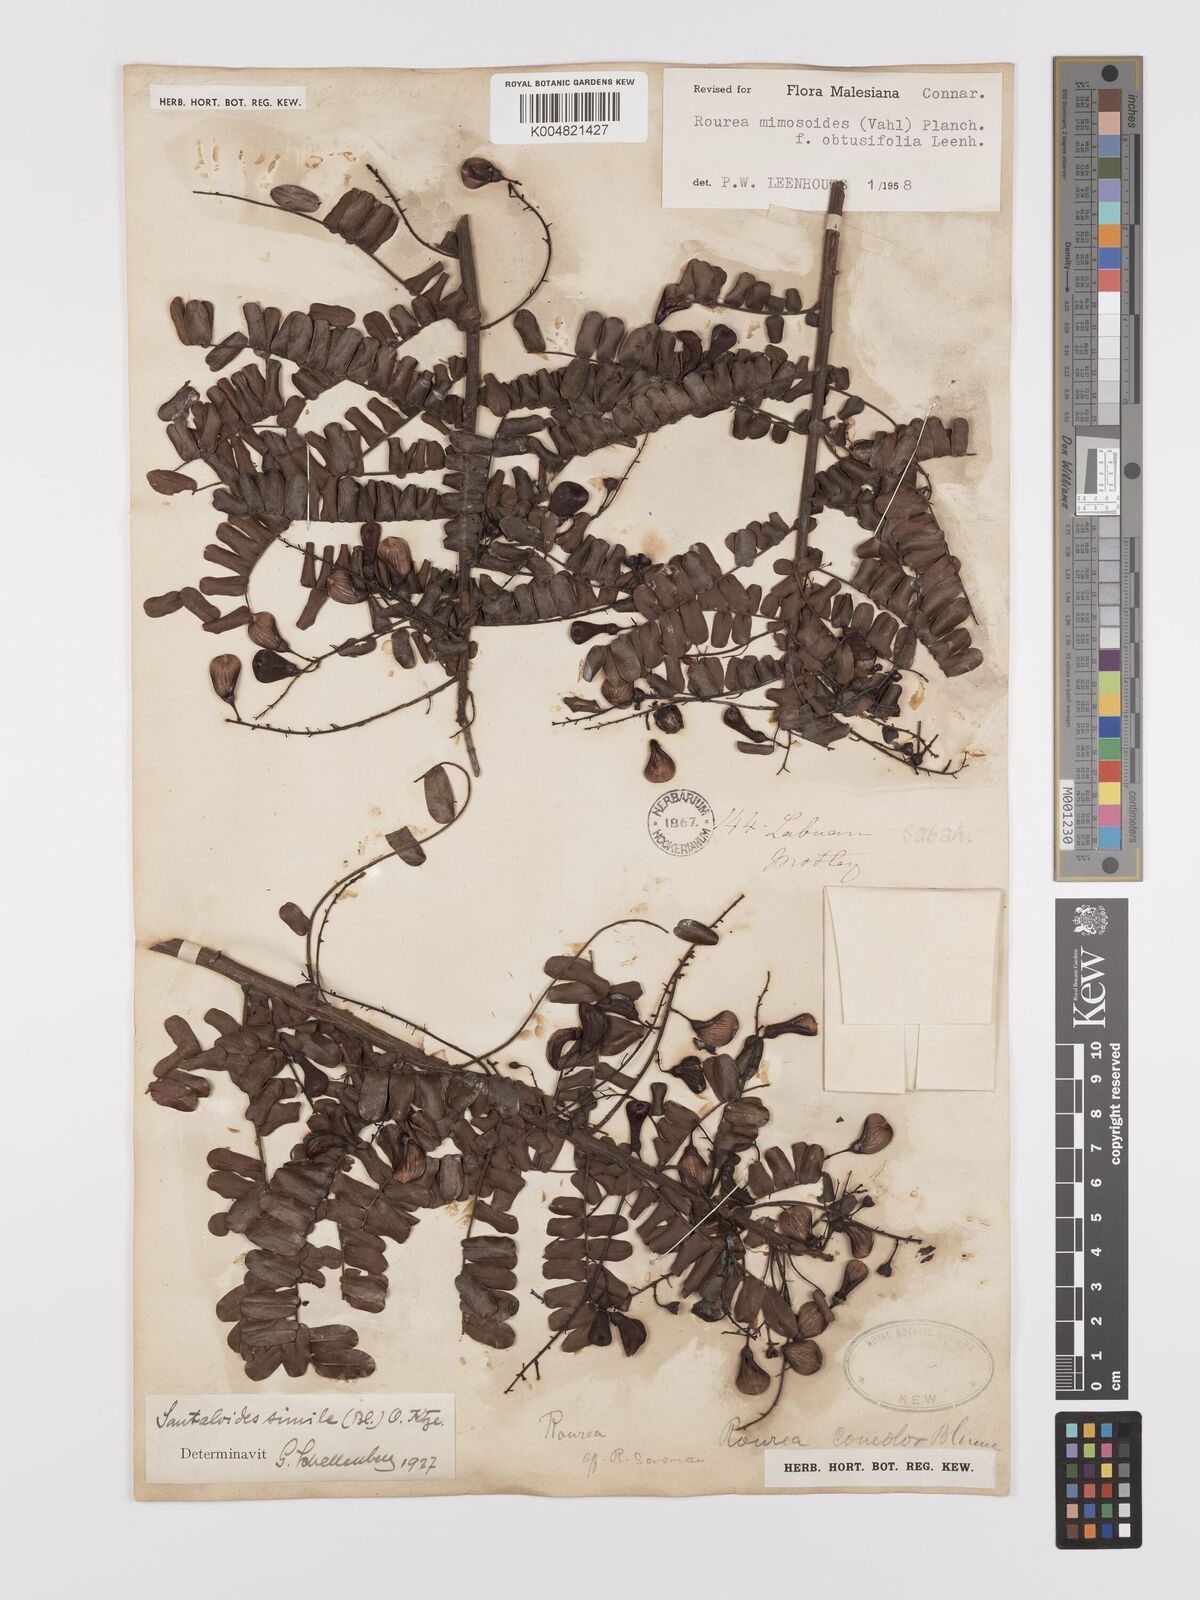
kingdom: Plantae
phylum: Tracheophyta
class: Magnoliopsida
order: Oxalidales
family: Connaraceae
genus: Rourea
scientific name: Rourea mimosoides
